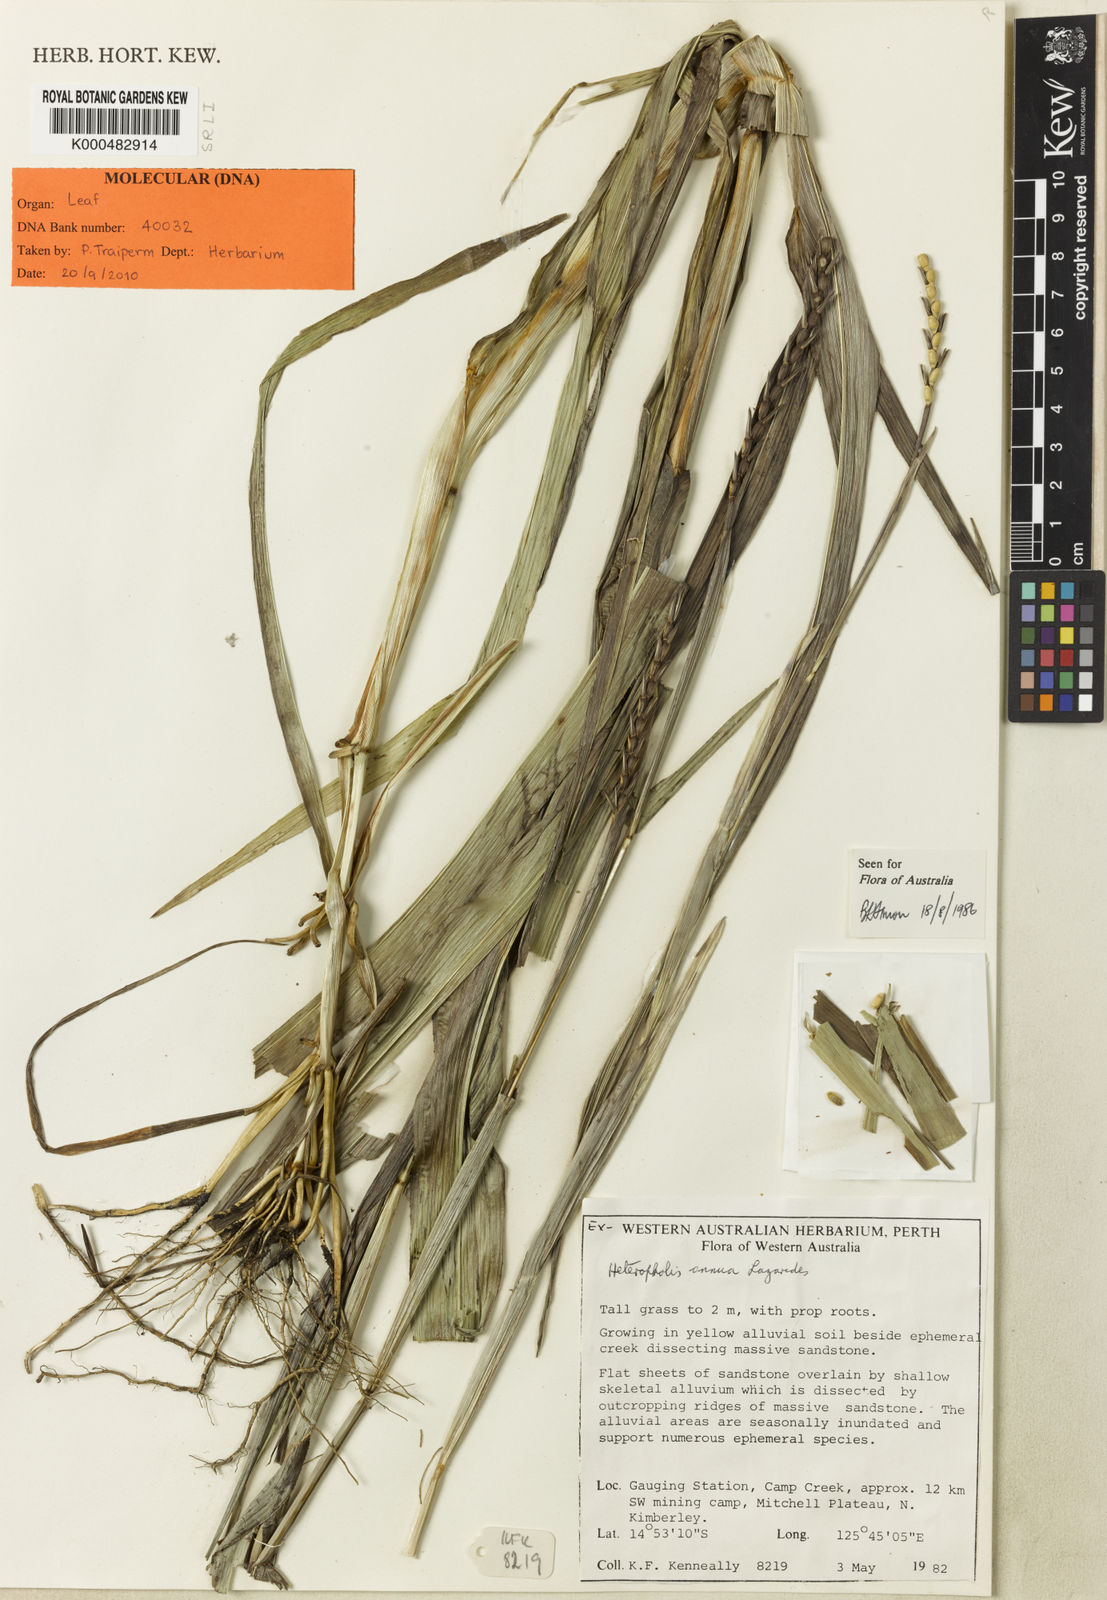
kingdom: Plantae
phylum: Tracheophyta
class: Liliopsida
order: Poales
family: Poaceae
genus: Mnesithea
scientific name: Mnesithea annua
